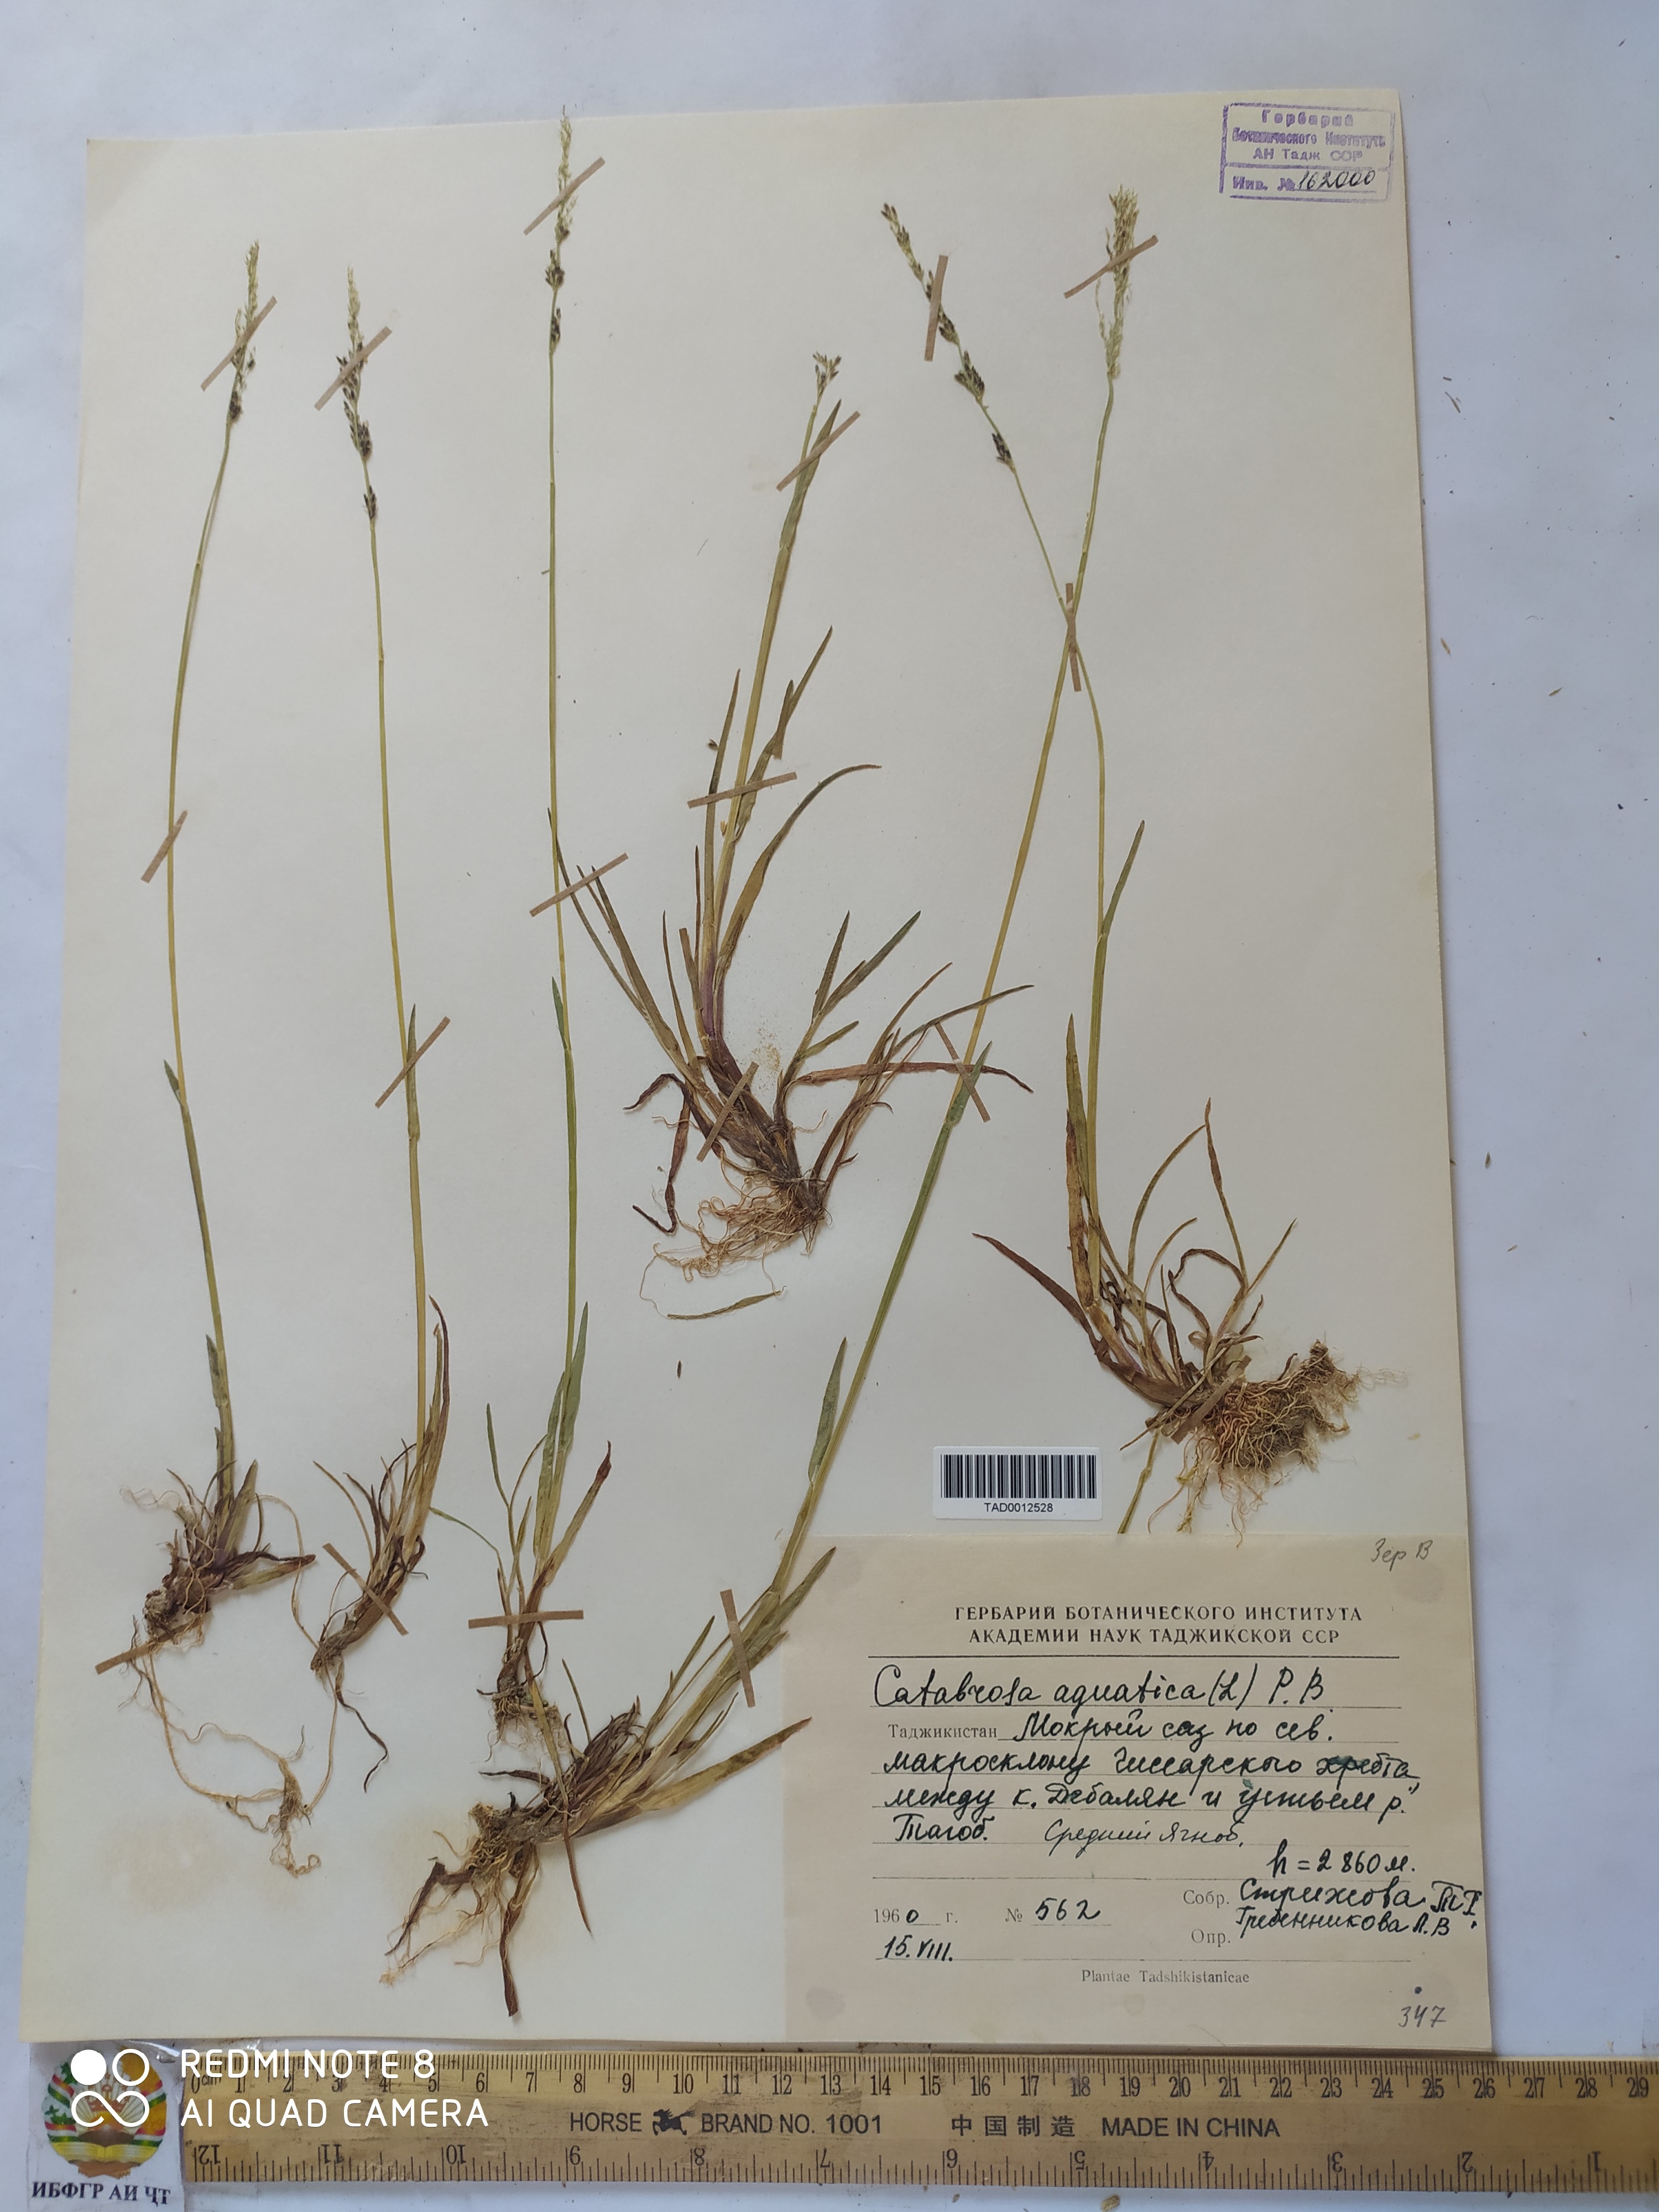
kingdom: Plantae
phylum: Tracheophyta
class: Liliopsida
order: Poales
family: Poaceae
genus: Catabrosa
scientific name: Catabrosa aquatica
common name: Whorl-grass
